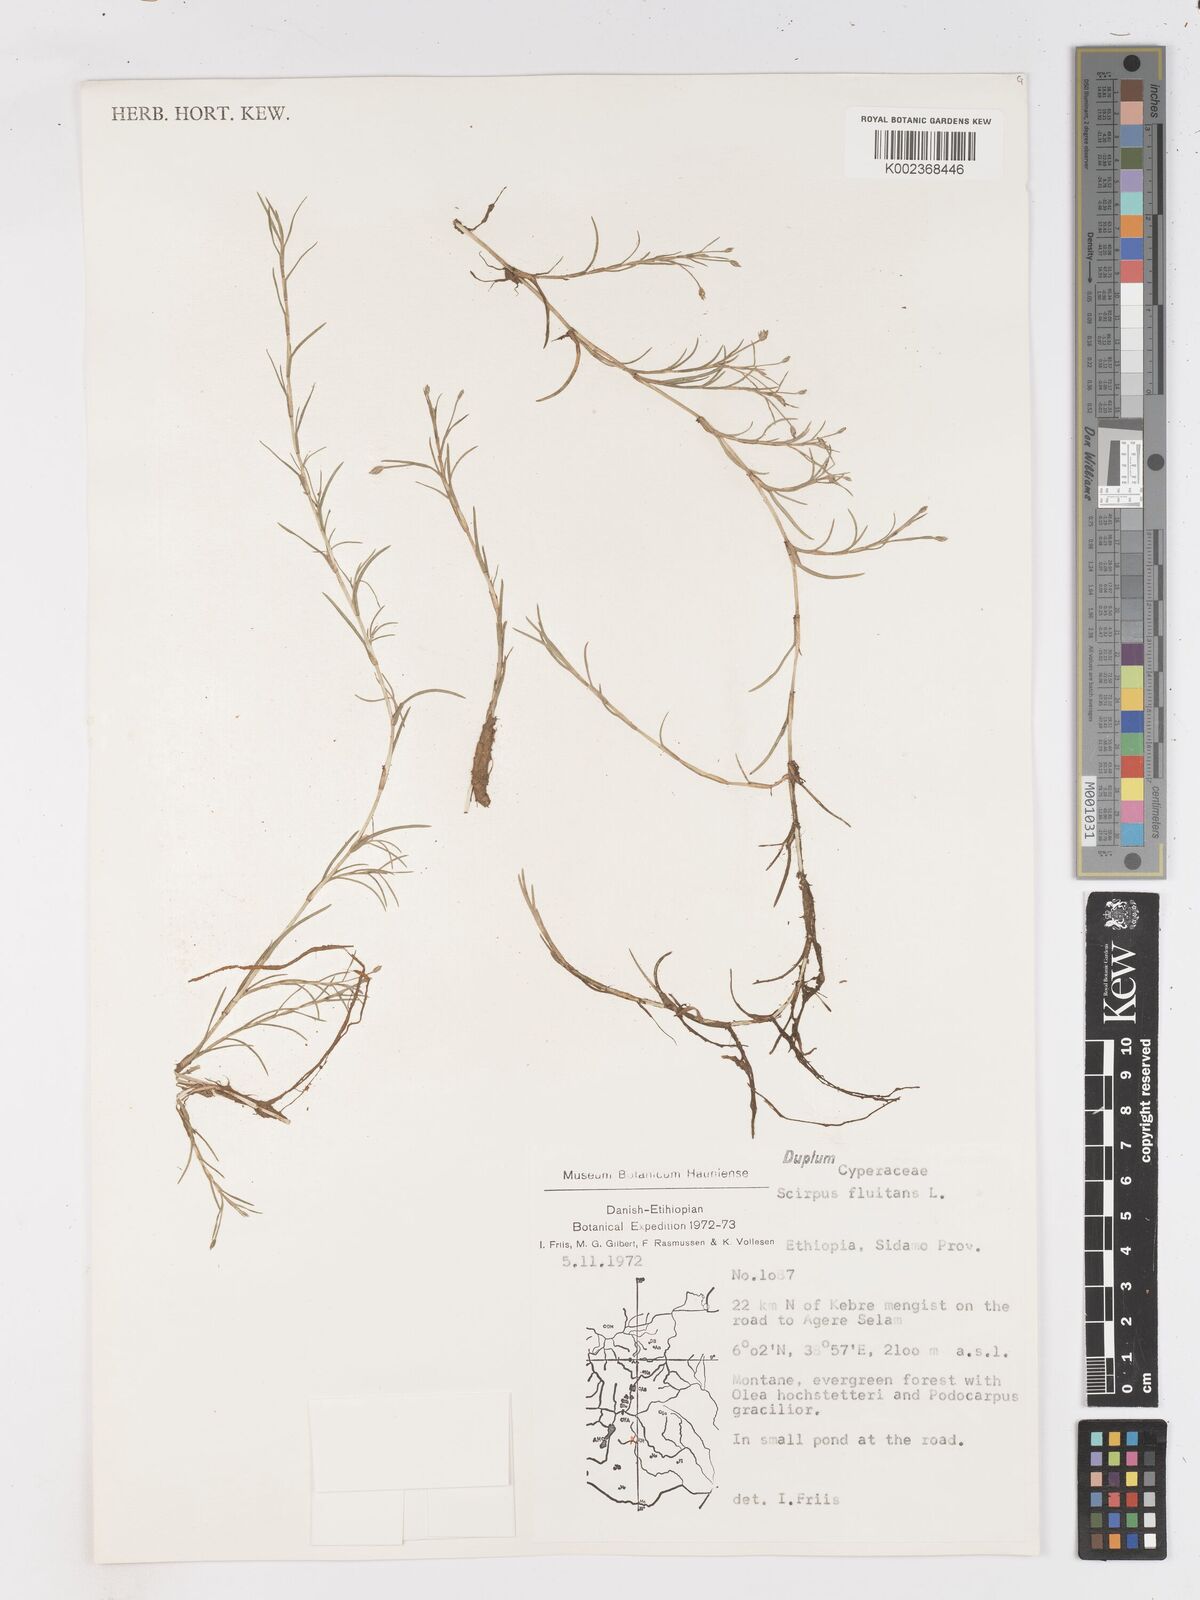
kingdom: Plantae
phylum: Tracheophyta
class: Liliopsida
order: Poales
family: Cyperaceae
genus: Isolepis
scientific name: Isolepis fluitans
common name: Floating club-rush
